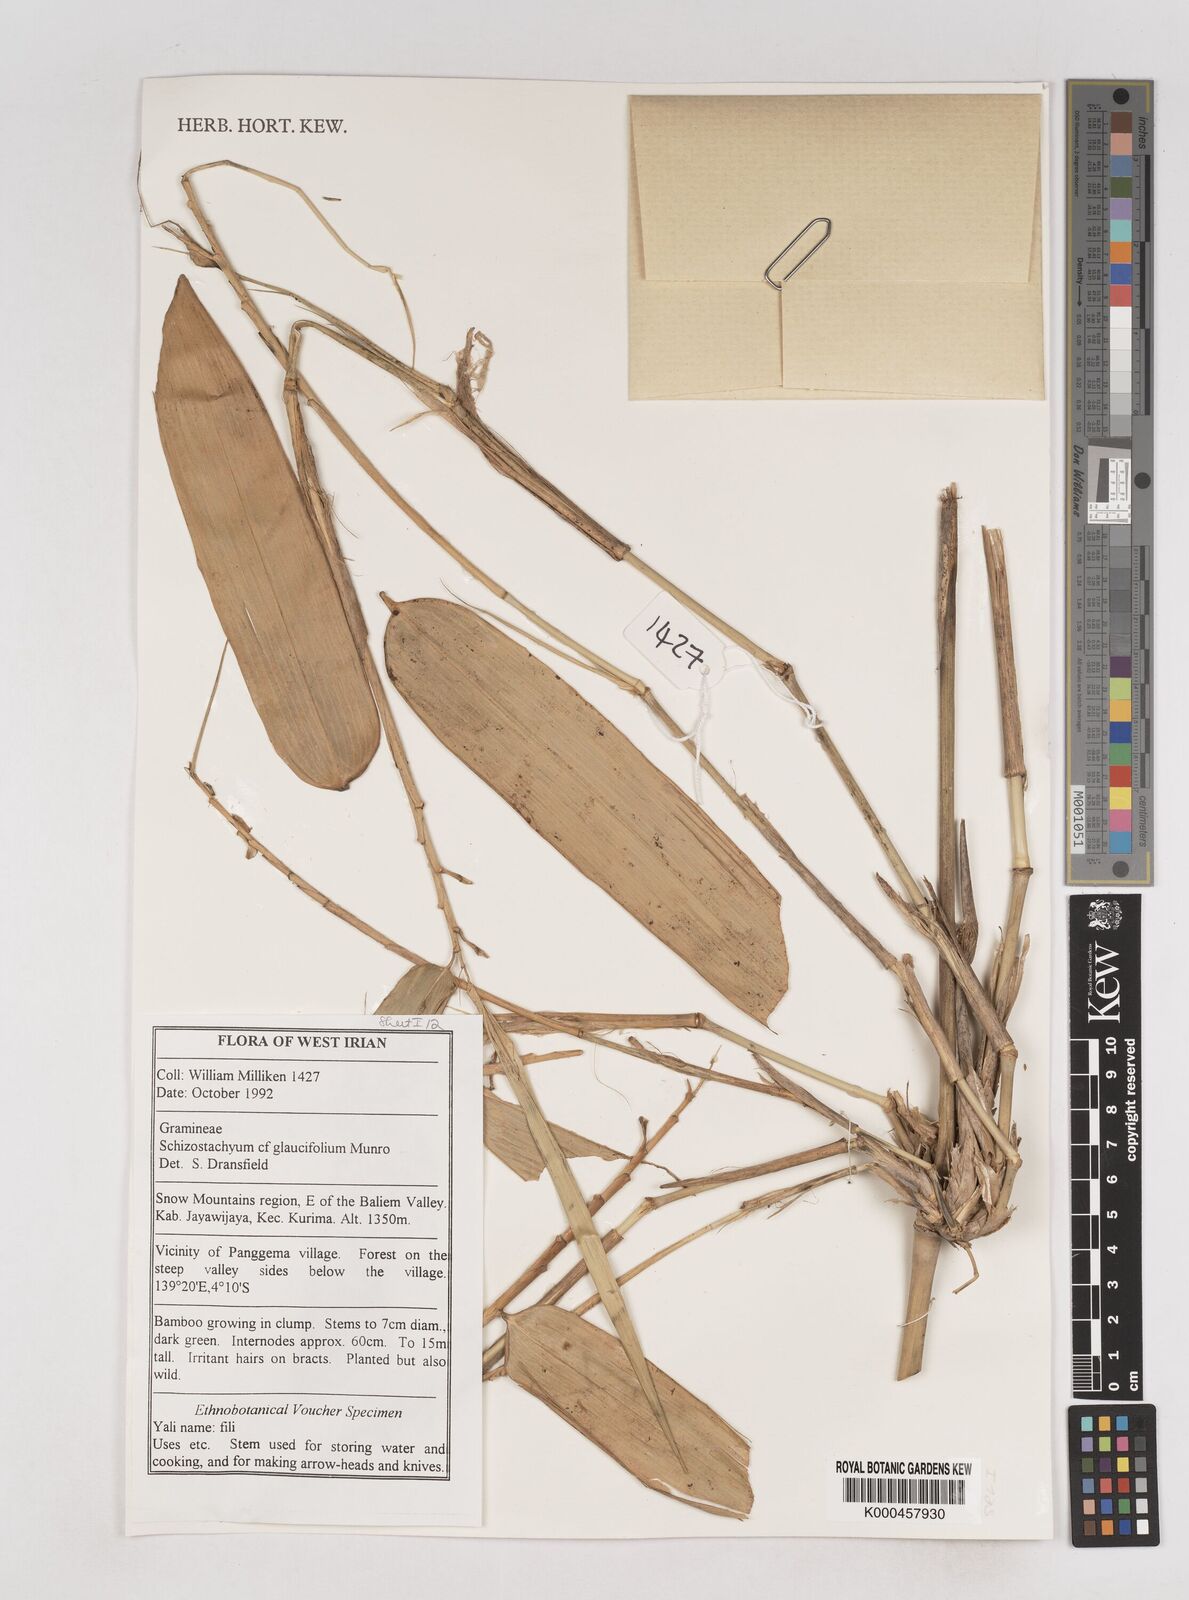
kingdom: Plantae
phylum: Tracheophyta
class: Liliopsida
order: Poales
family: Poaceae
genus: Schizostachyum
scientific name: Schizostachyum glaucifolium
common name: Polynesian 'ohe
